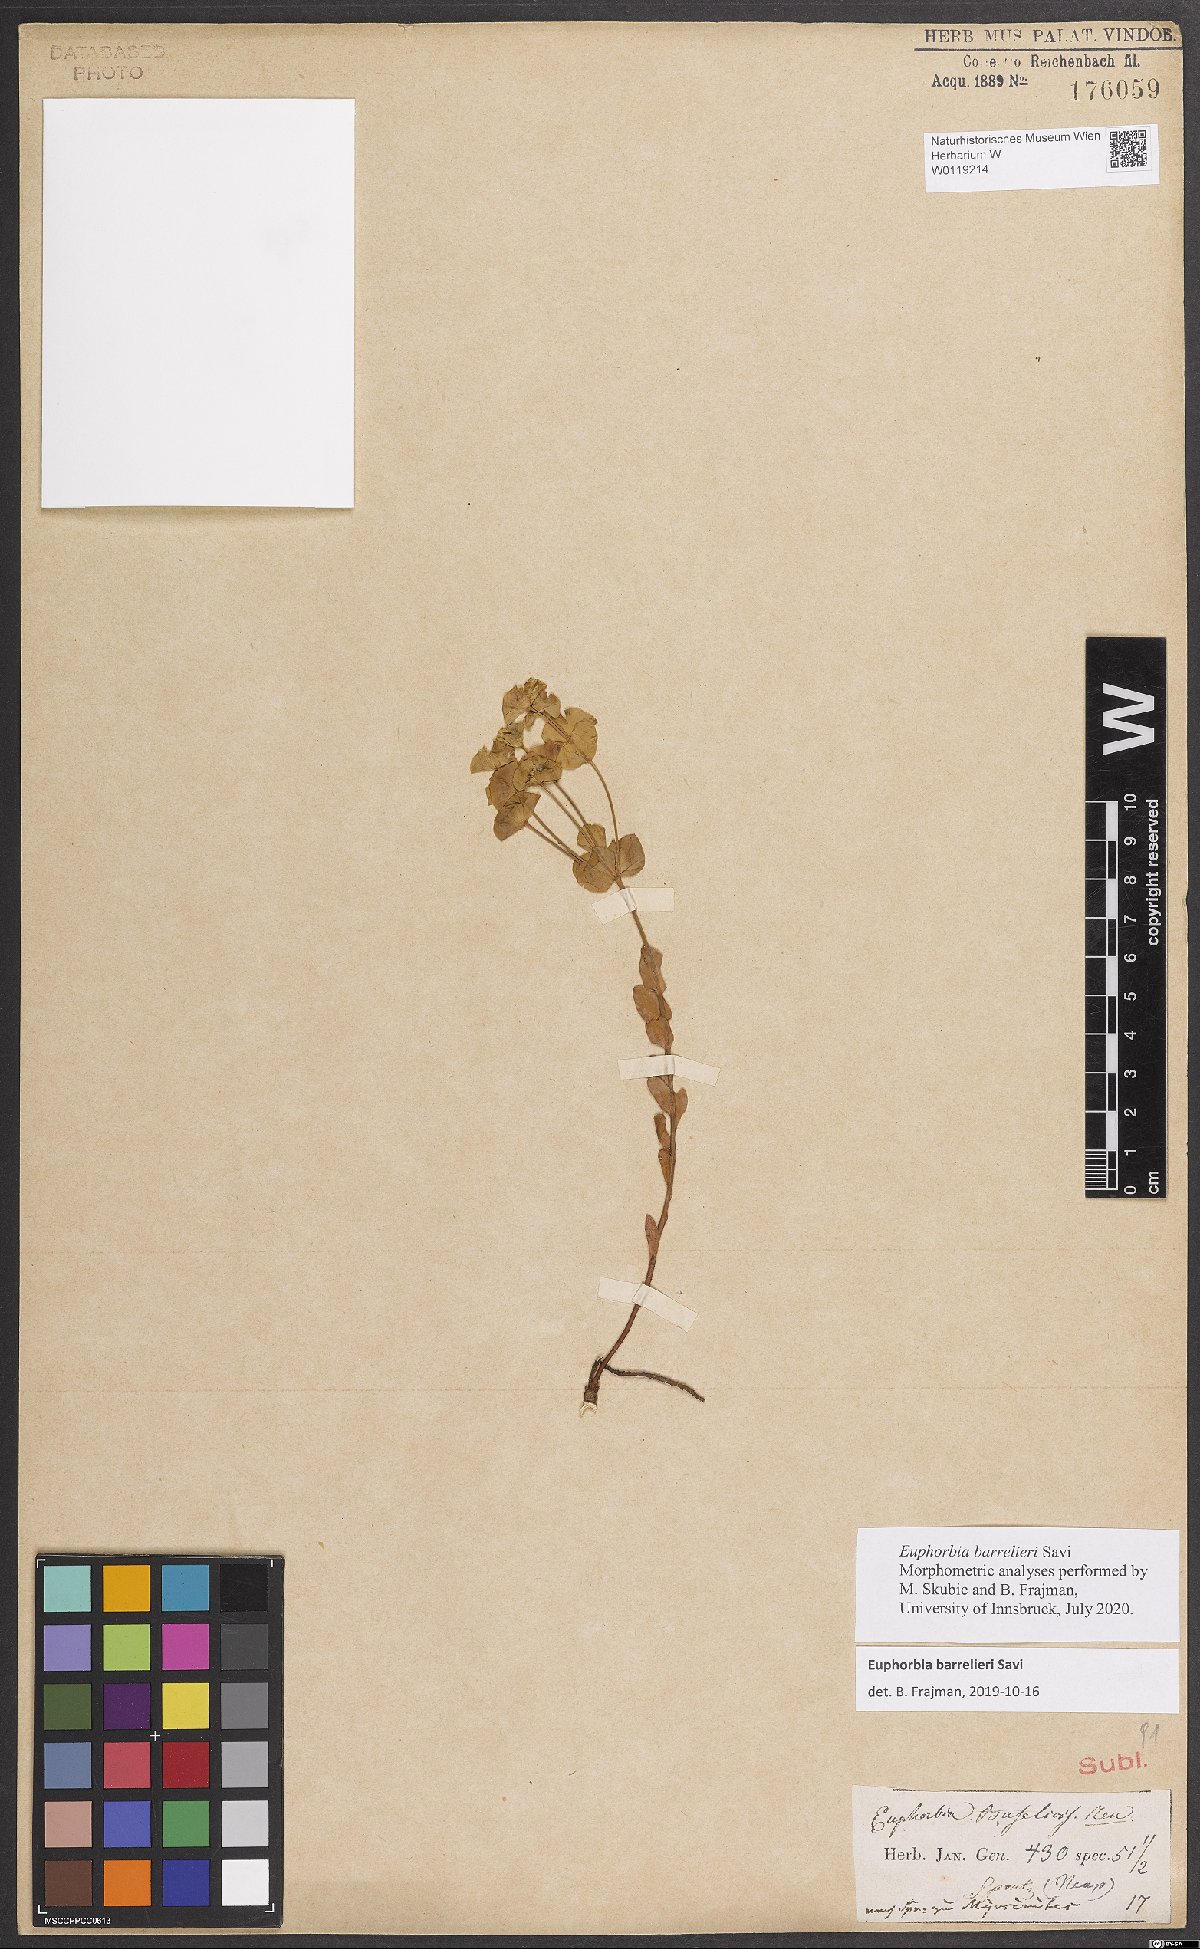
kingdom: Plantae
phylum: Tracheophyta
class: Magnoliopsida
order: Malpighiales
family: Euphorbiaceae
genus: Euphorbia
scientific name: Euphorbia barrelieri
